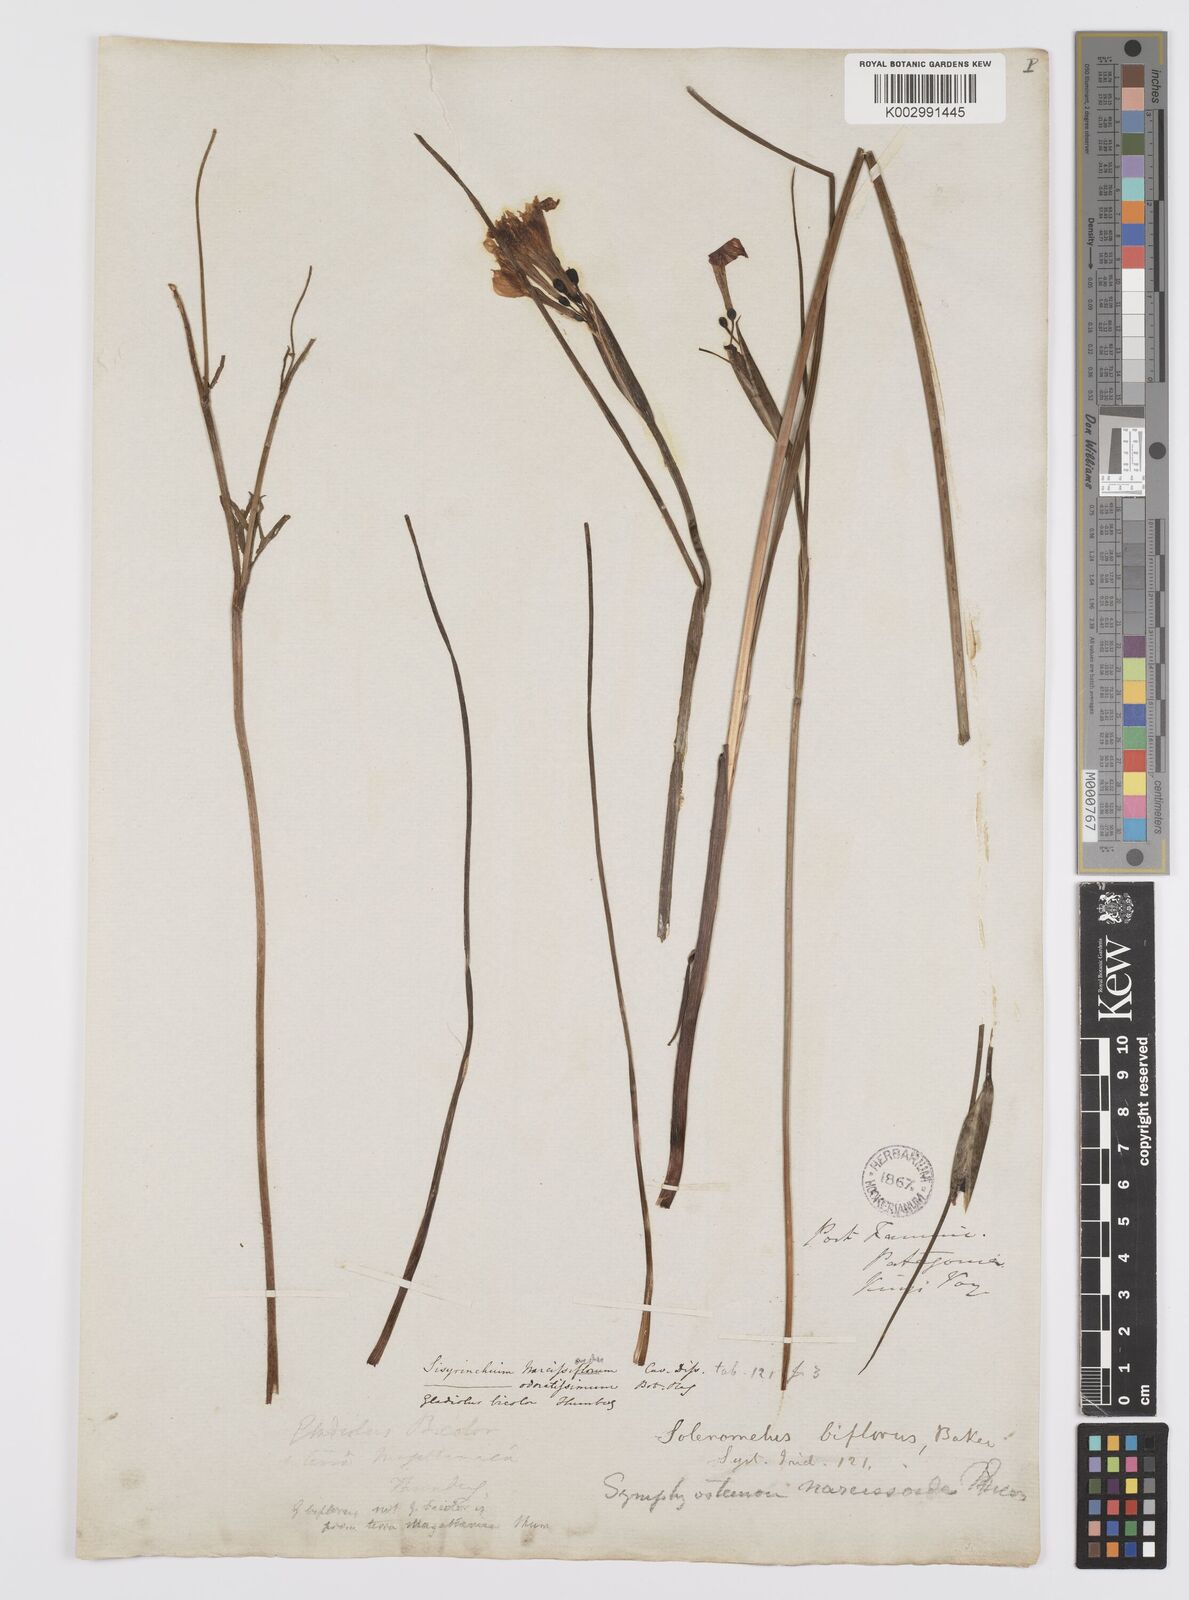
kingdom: Plantae
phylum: Tracheophyta
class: Liliopsida
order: Asparagales
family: Iridaceae
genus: Olsynium
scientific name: Olsynium biflorum
